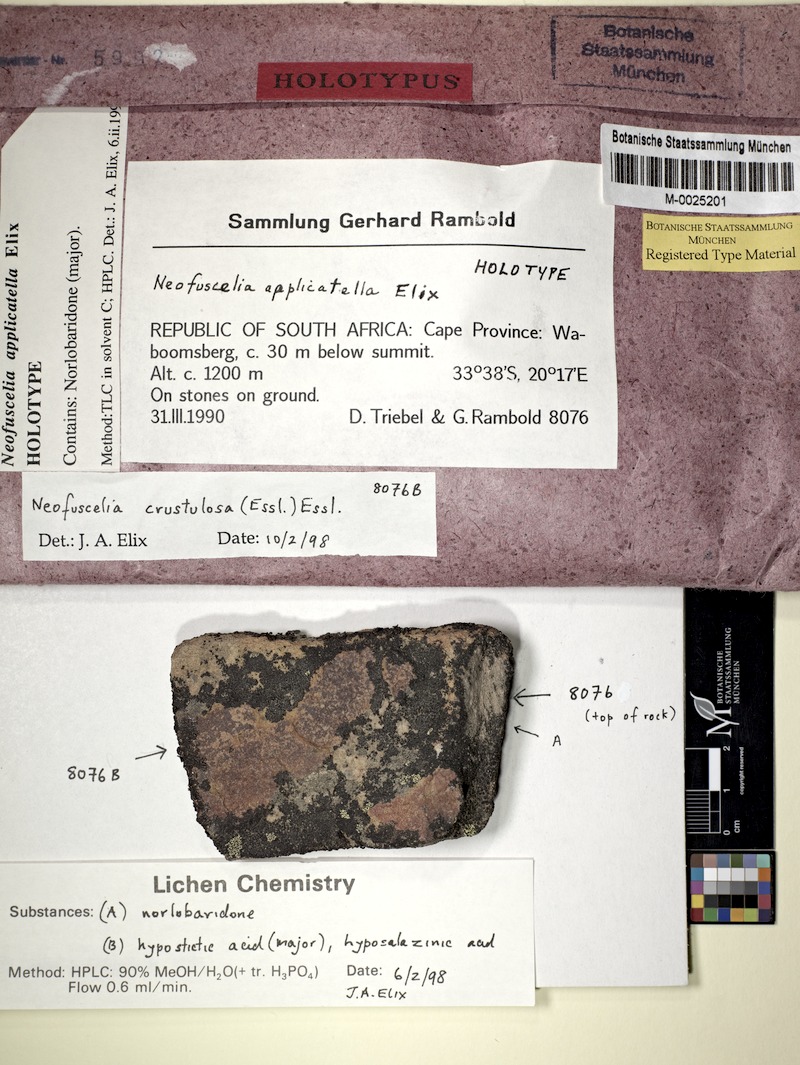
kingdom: Fungi
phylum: Ascomycota
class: Lecanoromycetes
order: Lecanorales
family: Parmeliaceae
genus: Xanthoparmelia
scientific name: Xanthoparmelia applicatella
